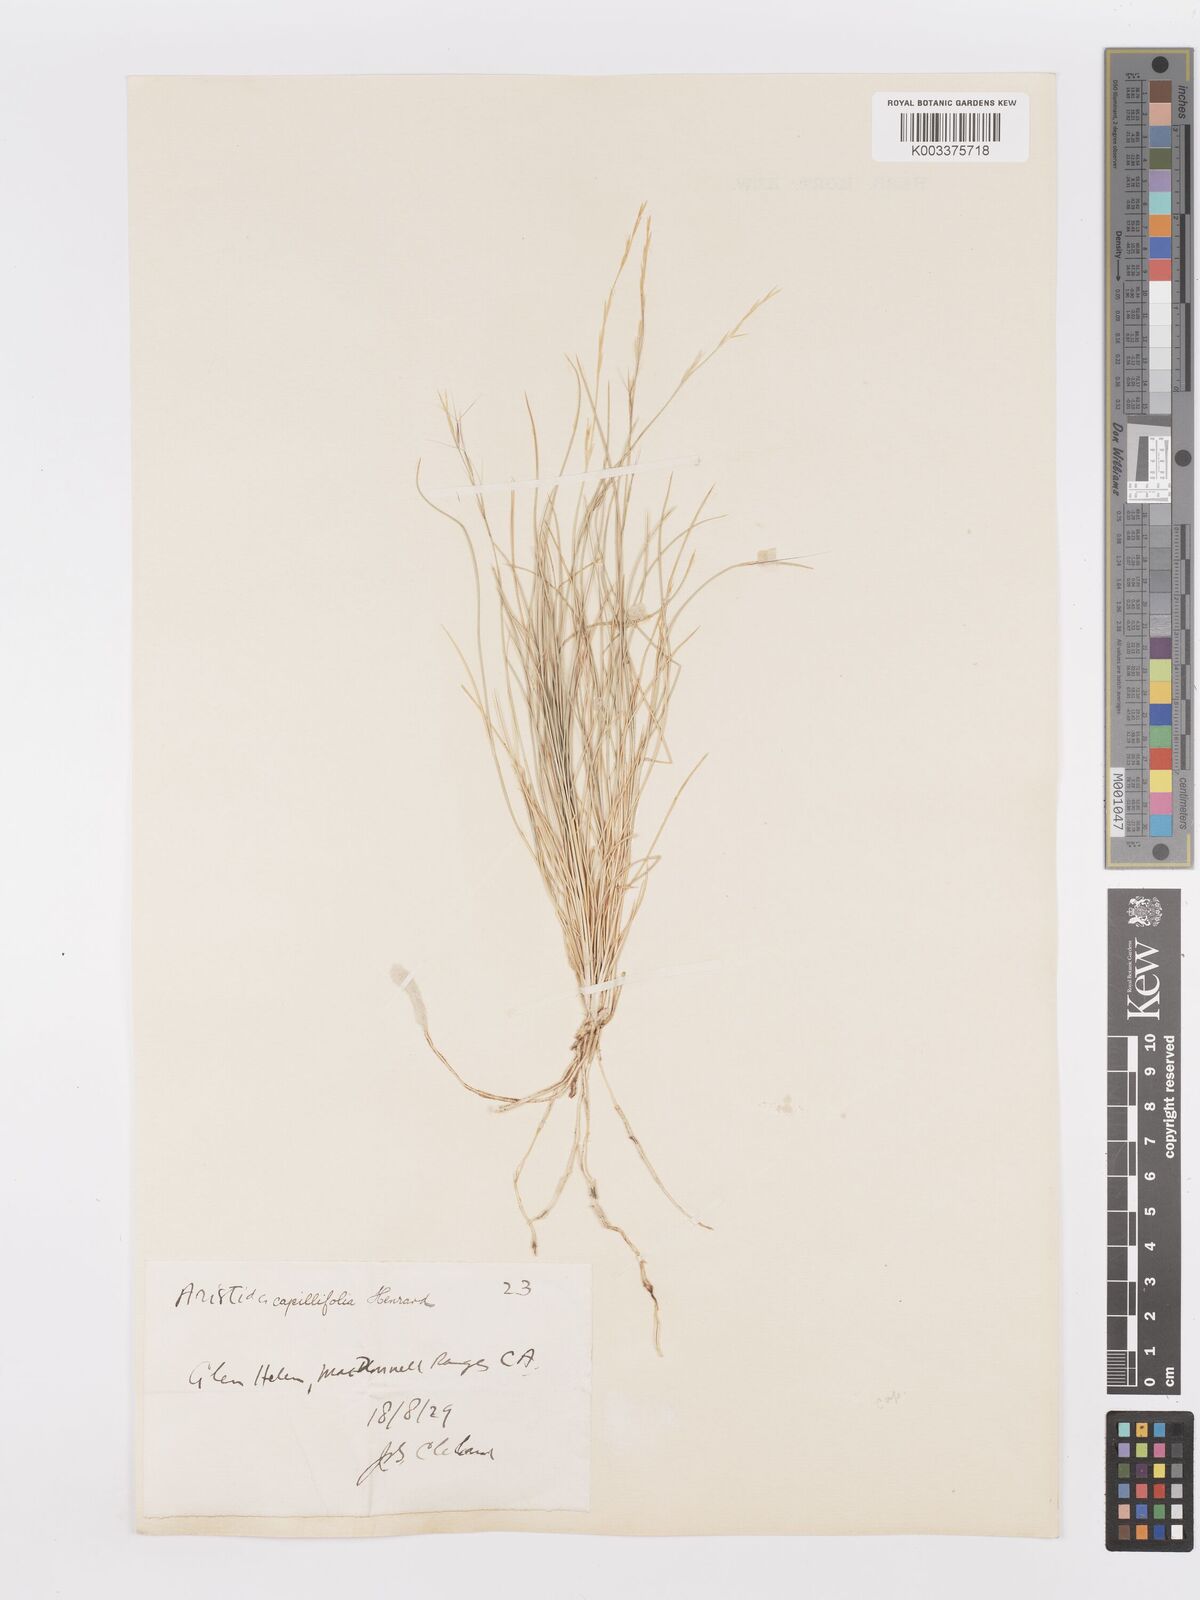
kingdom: Plantae
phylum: Tracheophyta
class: Liliopsida
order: Poales
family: Poaceae
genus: Aristida
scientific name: Aristida capillifolia
